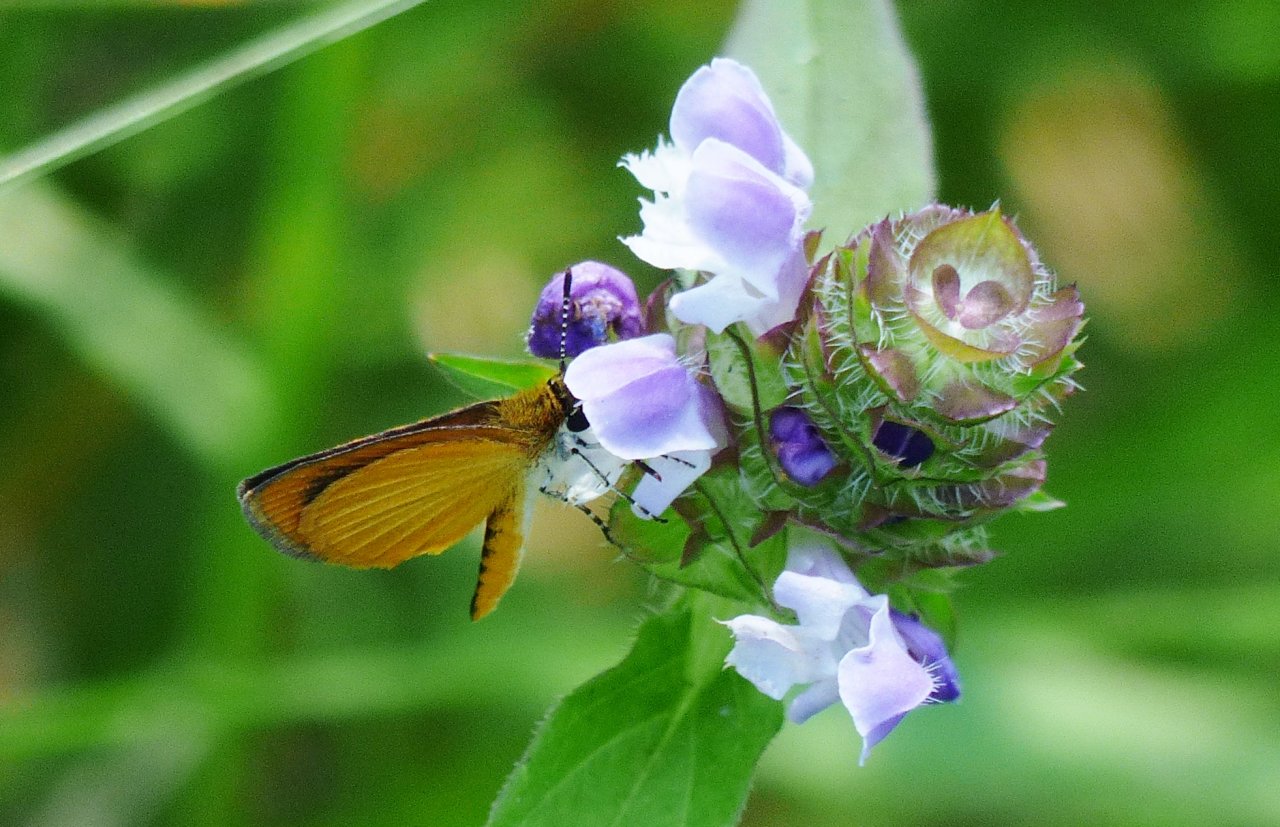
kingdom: Animalia
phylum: Arthropoda
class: Insecta
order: Lepidoptera
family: Hesperiidae
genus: Ancyloxypha
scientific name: Ancyloxypha numitor
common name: Least Skipper
